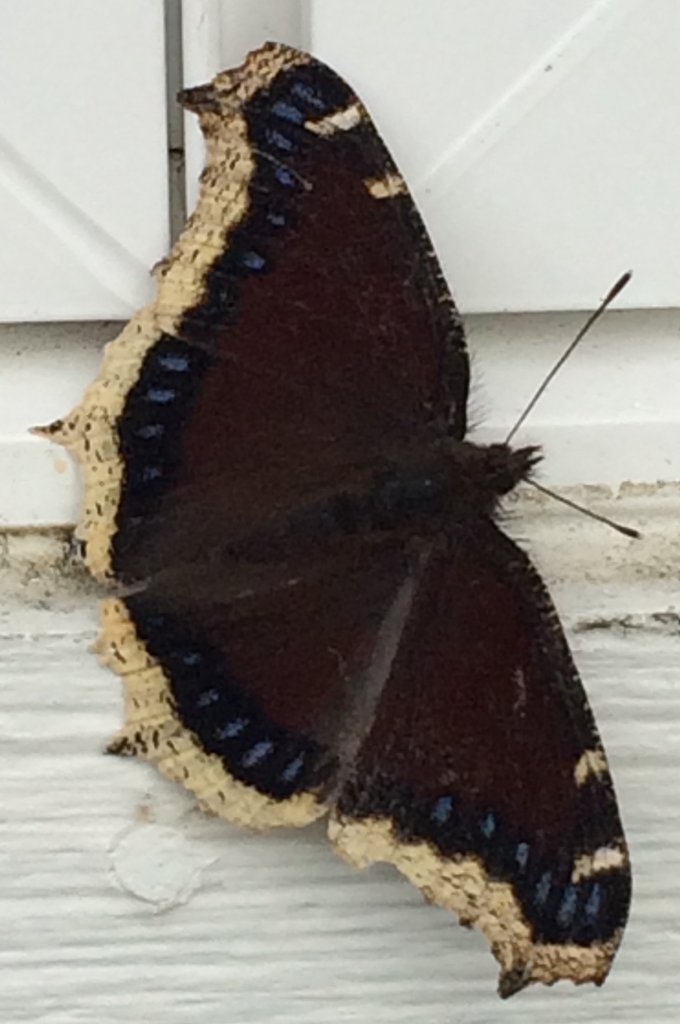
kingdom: Animalia
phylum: Arthropoda
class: Insecta
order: Lepidoptera
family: Nymphalidae
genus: Nymphalis
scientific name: Nymphalis antiopa
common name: Mourning Cloak
